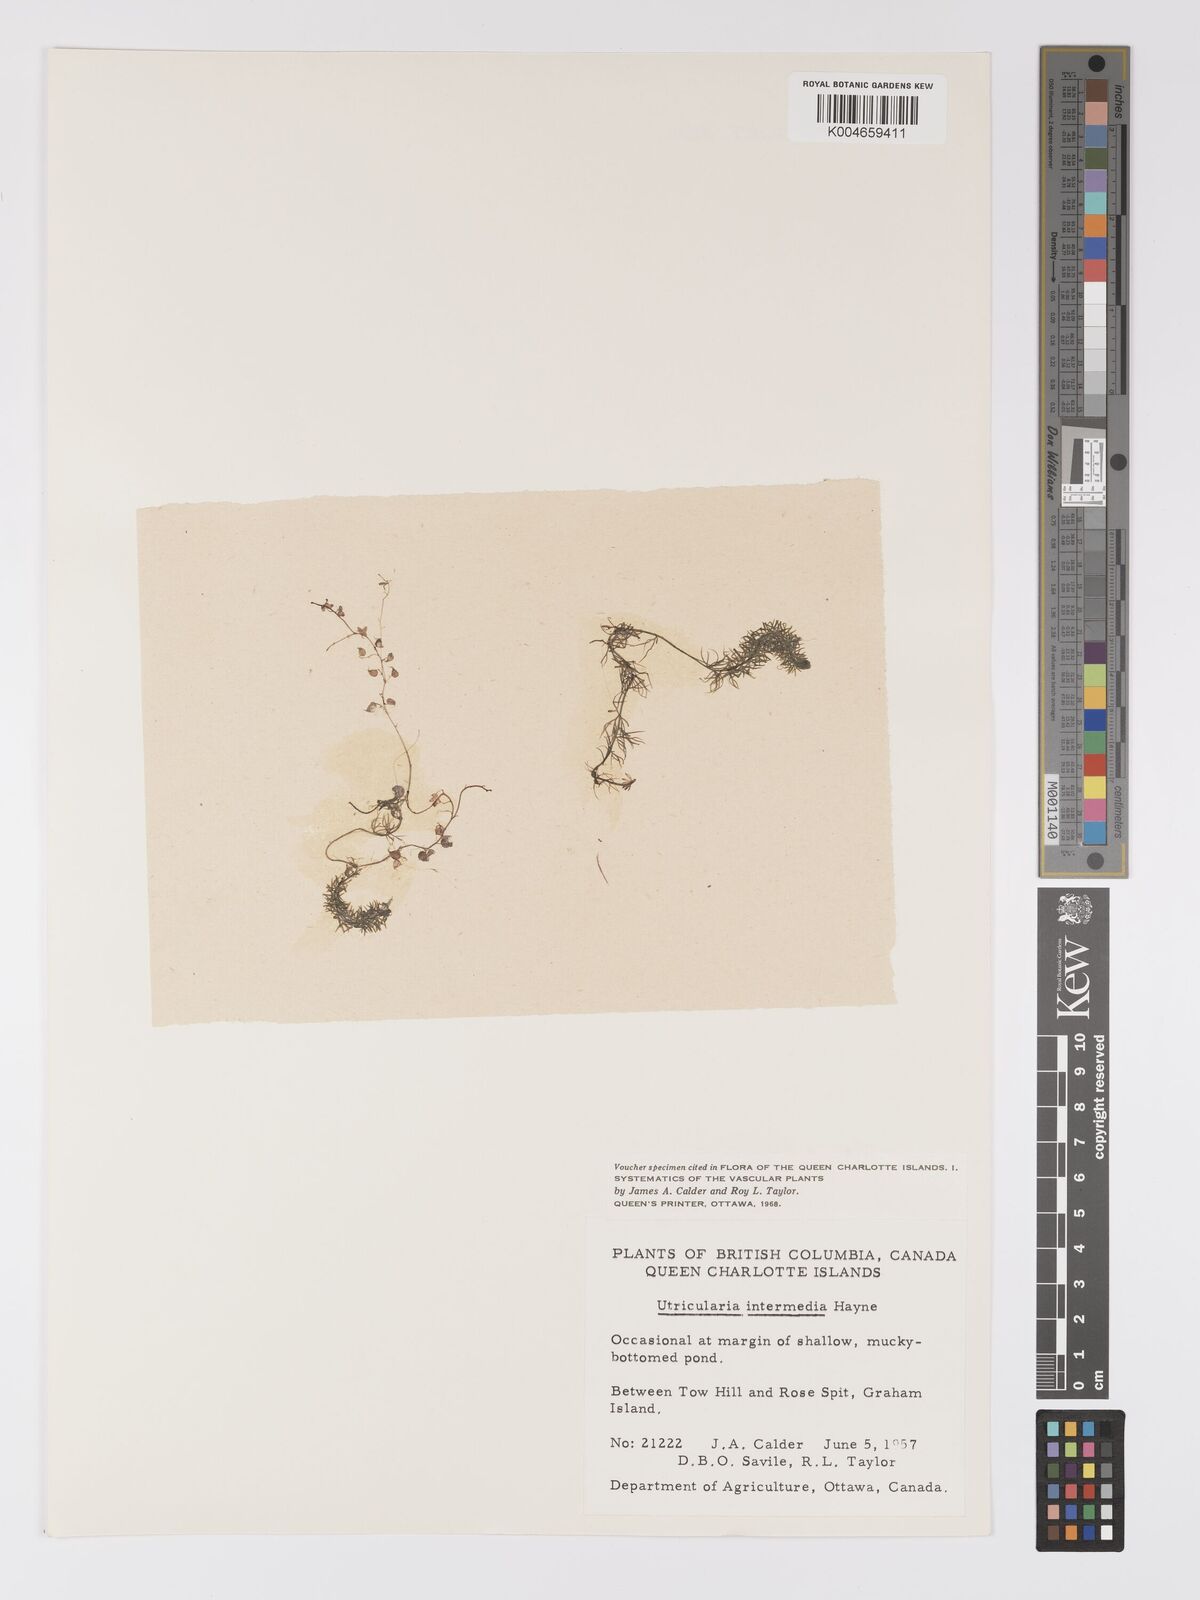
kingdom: Plantae
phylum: Tracheophyta
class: Magnoliopsida
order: Lamiales
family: Lentibulariaceae
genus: Utricularia
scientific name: Utricularia intermedia
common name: Intermediate bladderwort
